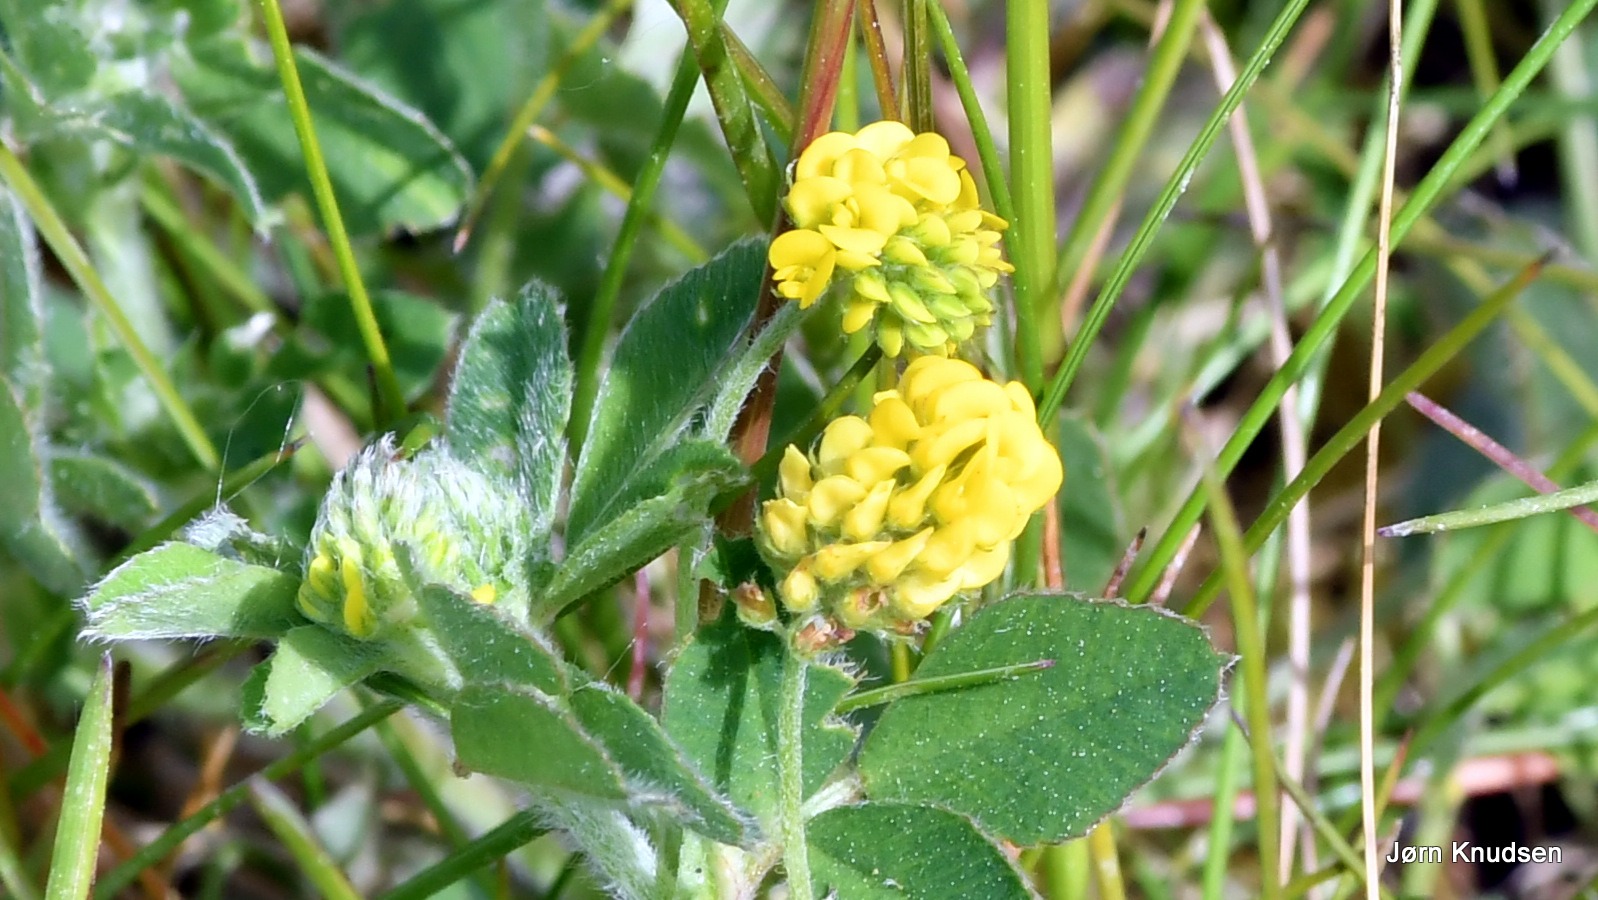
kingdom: Plantae
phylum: Tracheophyta
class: Magnoliopsida
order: Fabales
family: Fabaceae
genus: Medicago
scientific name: Medicago lupulina
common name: Humle-sneglebælg
